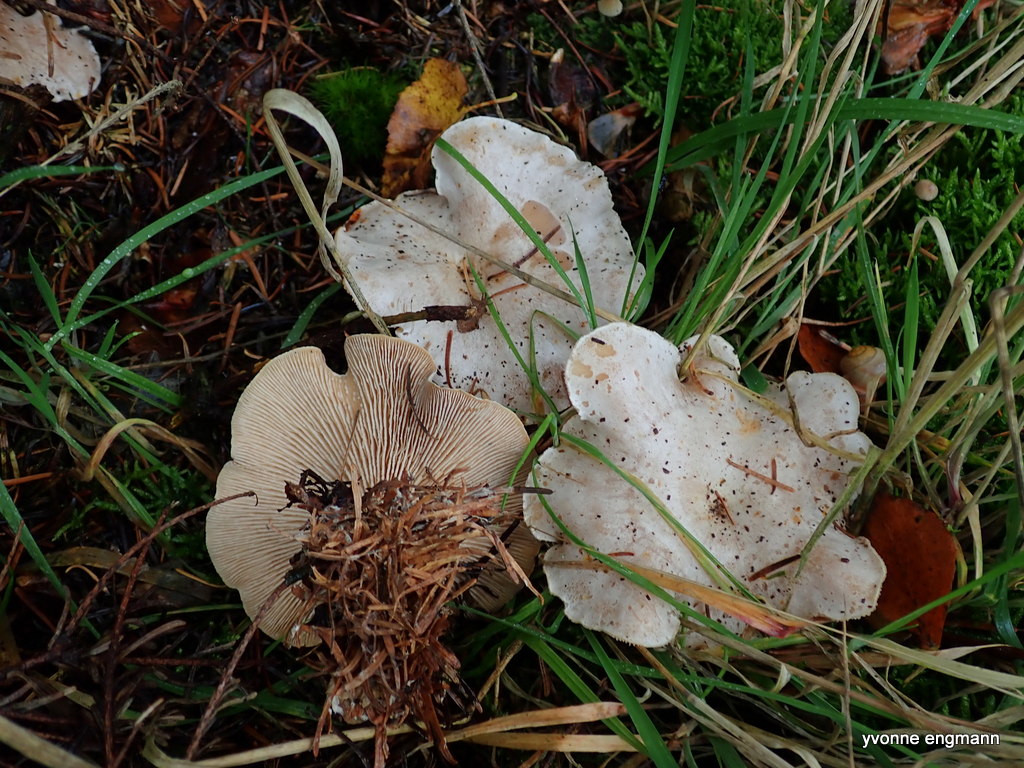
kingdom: Fungi
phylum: Basidiomycota
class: Agaricomycetes
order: Agaricales
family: Tricholomataceae
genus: Leucocybe
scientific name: Leucocybe connata
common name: knippe-tragthat
